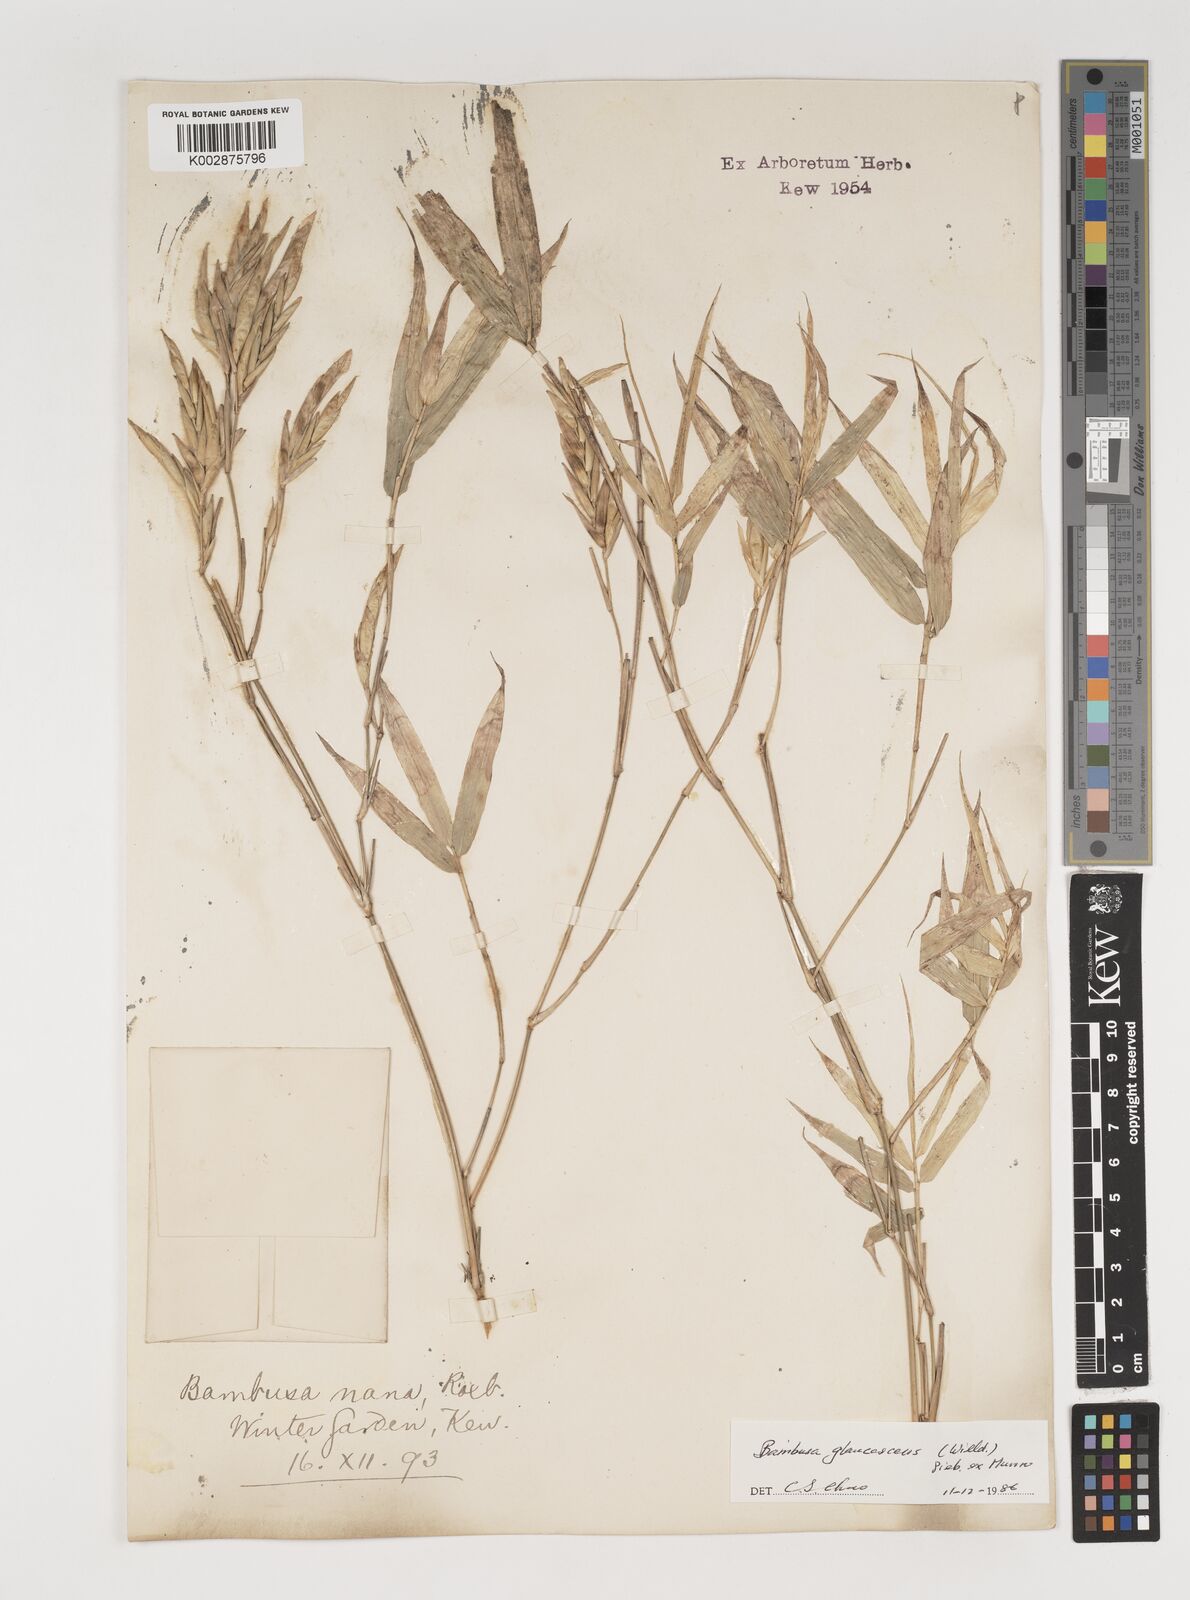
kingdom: Plantae
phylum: Tracheophyta
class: Liliopsida
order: Poales
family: Poaceae
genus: Bambusa
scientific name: Bambusa multiplex
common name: Hedge bamboo
